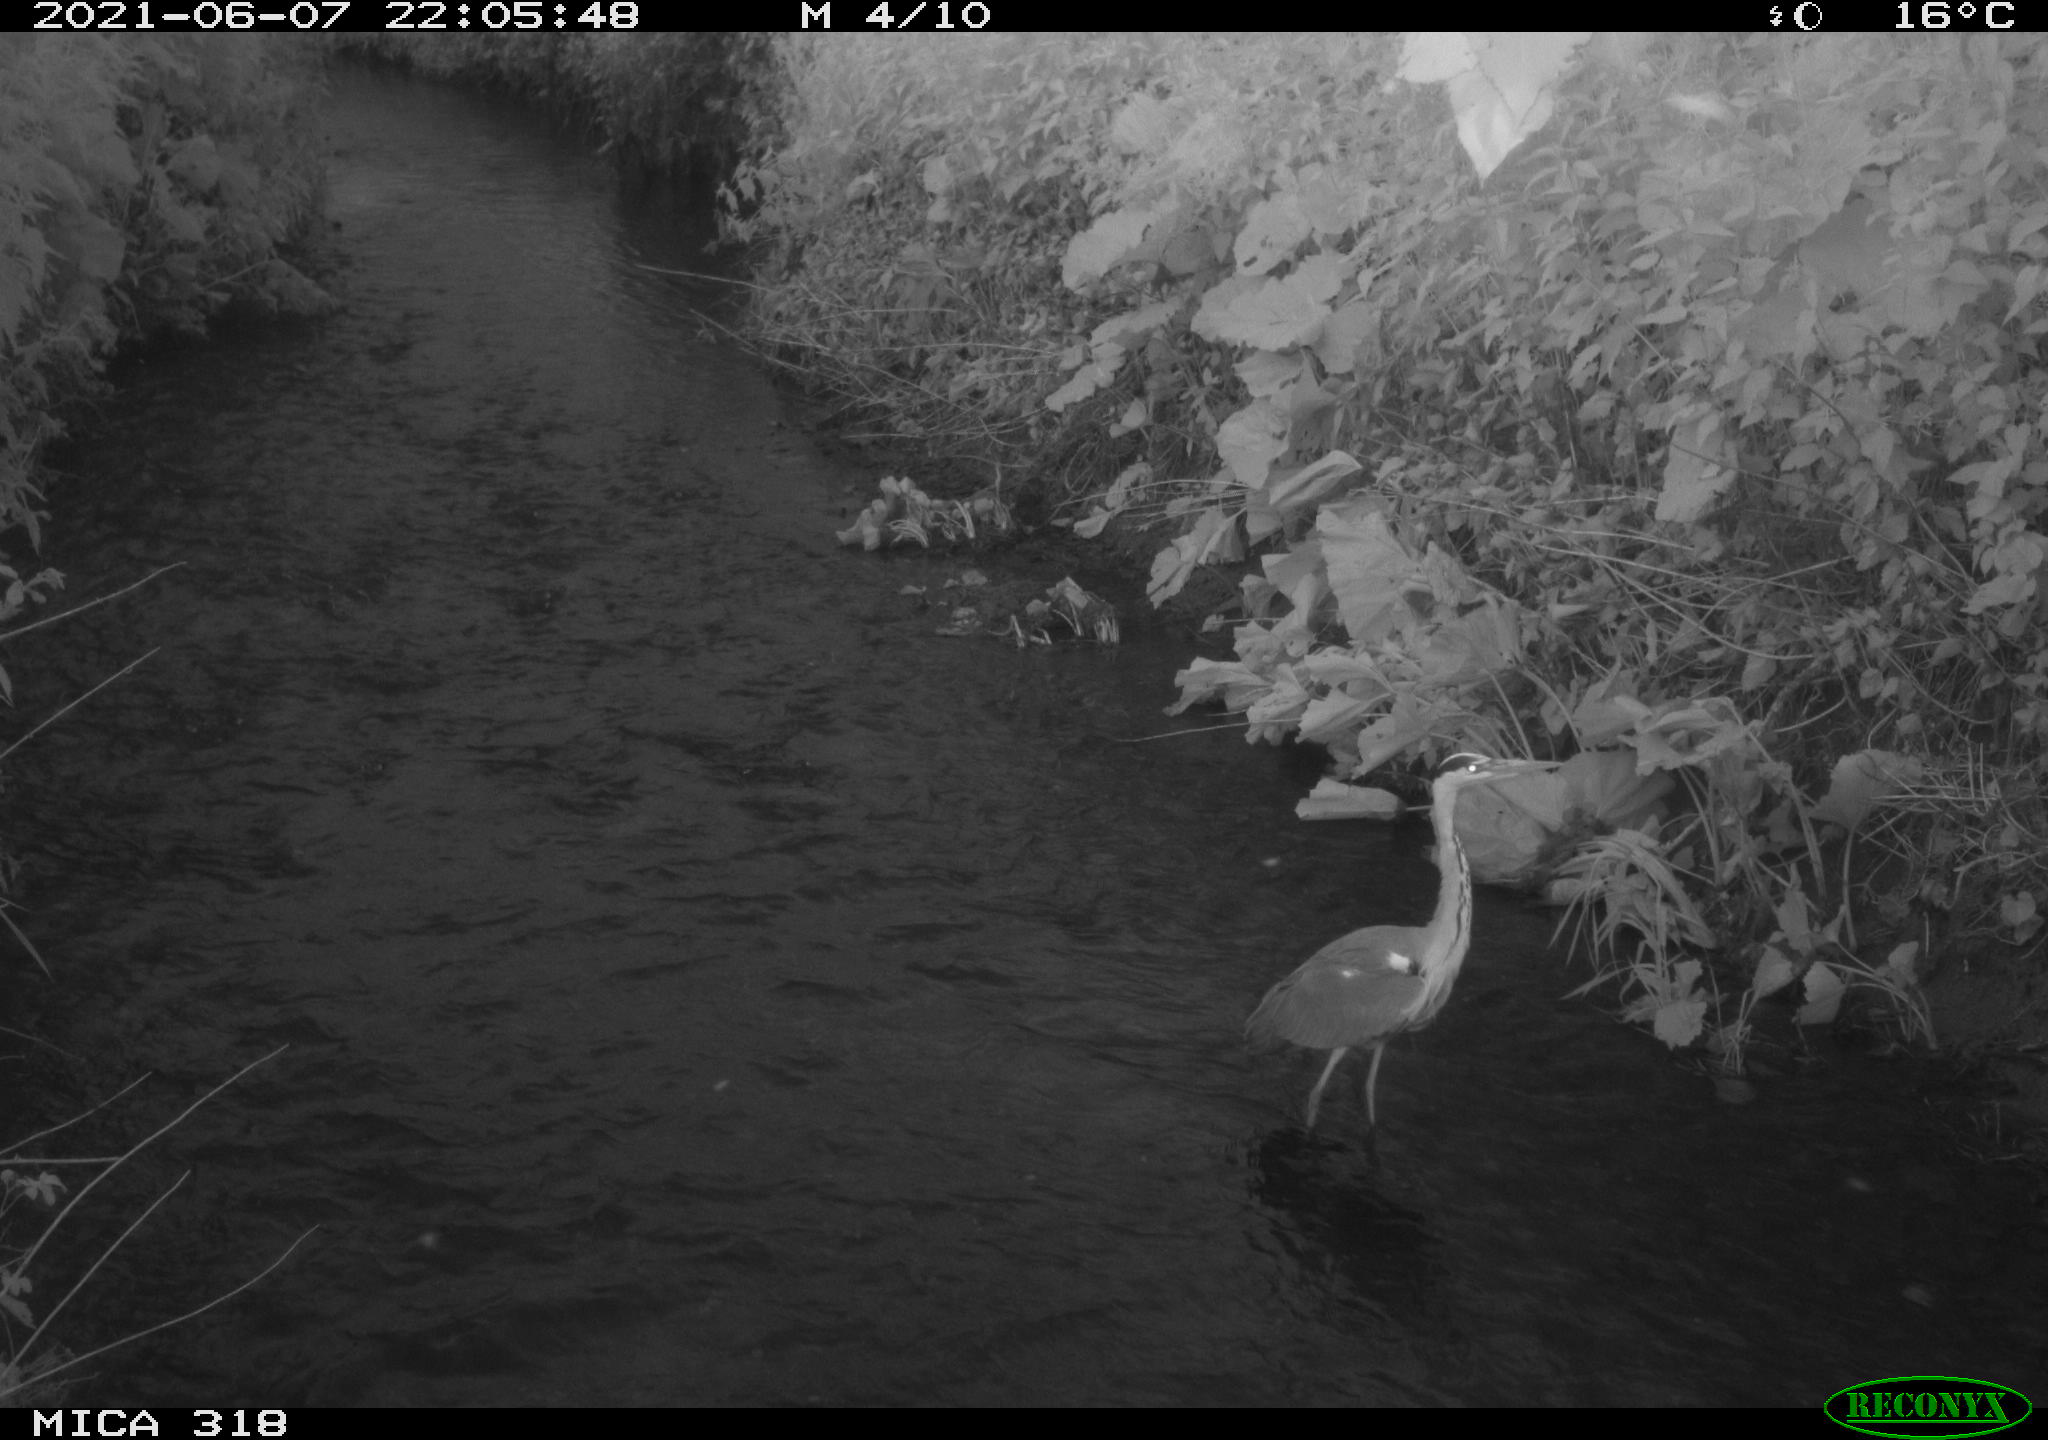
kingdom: Animalia
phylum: Chordata
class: Aves
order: Pelecaniformes
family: Ardeidae
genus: Ardea
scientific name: Ardea cinerea
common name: Grey heron
